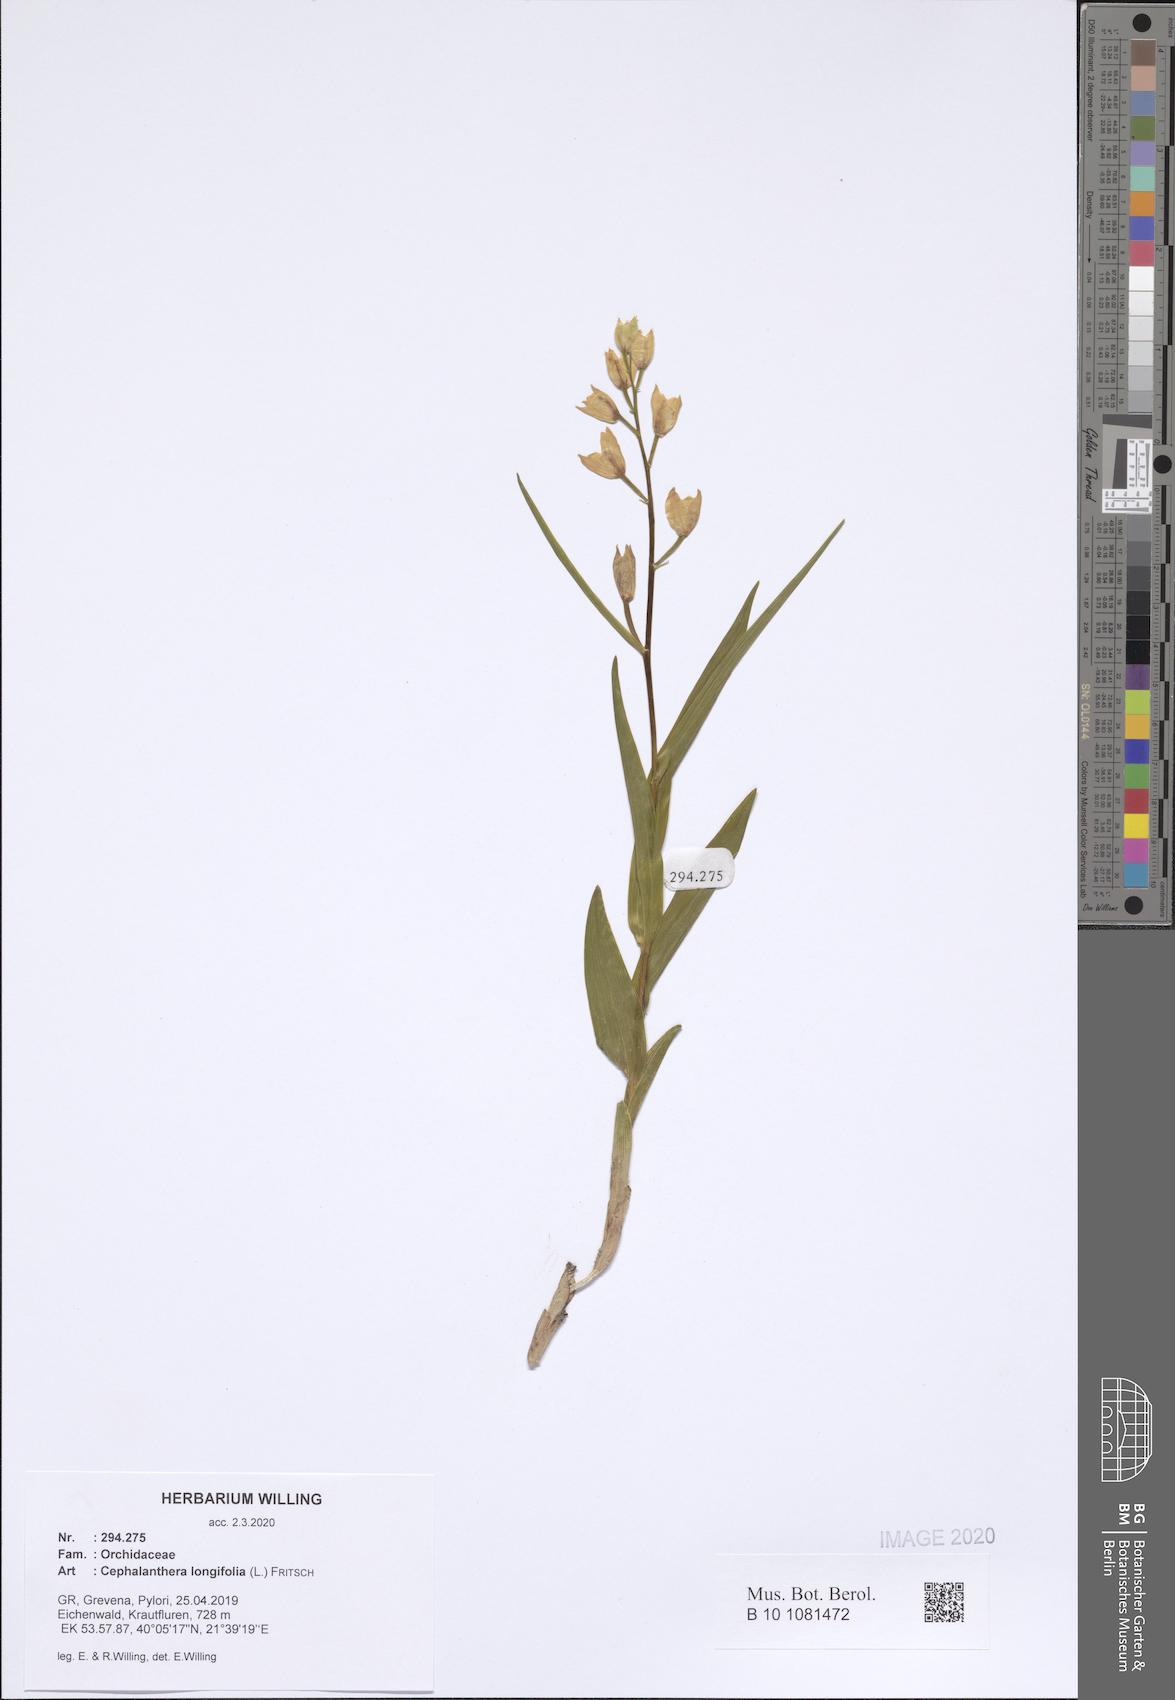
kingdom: Plantae
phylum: Tracheophyta
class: Liliopsida
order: Asparagales
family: Orchidaceae
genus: Cephalanthera
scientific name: Cephalanthera longifolia
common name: Narrow-leaved helleborine
